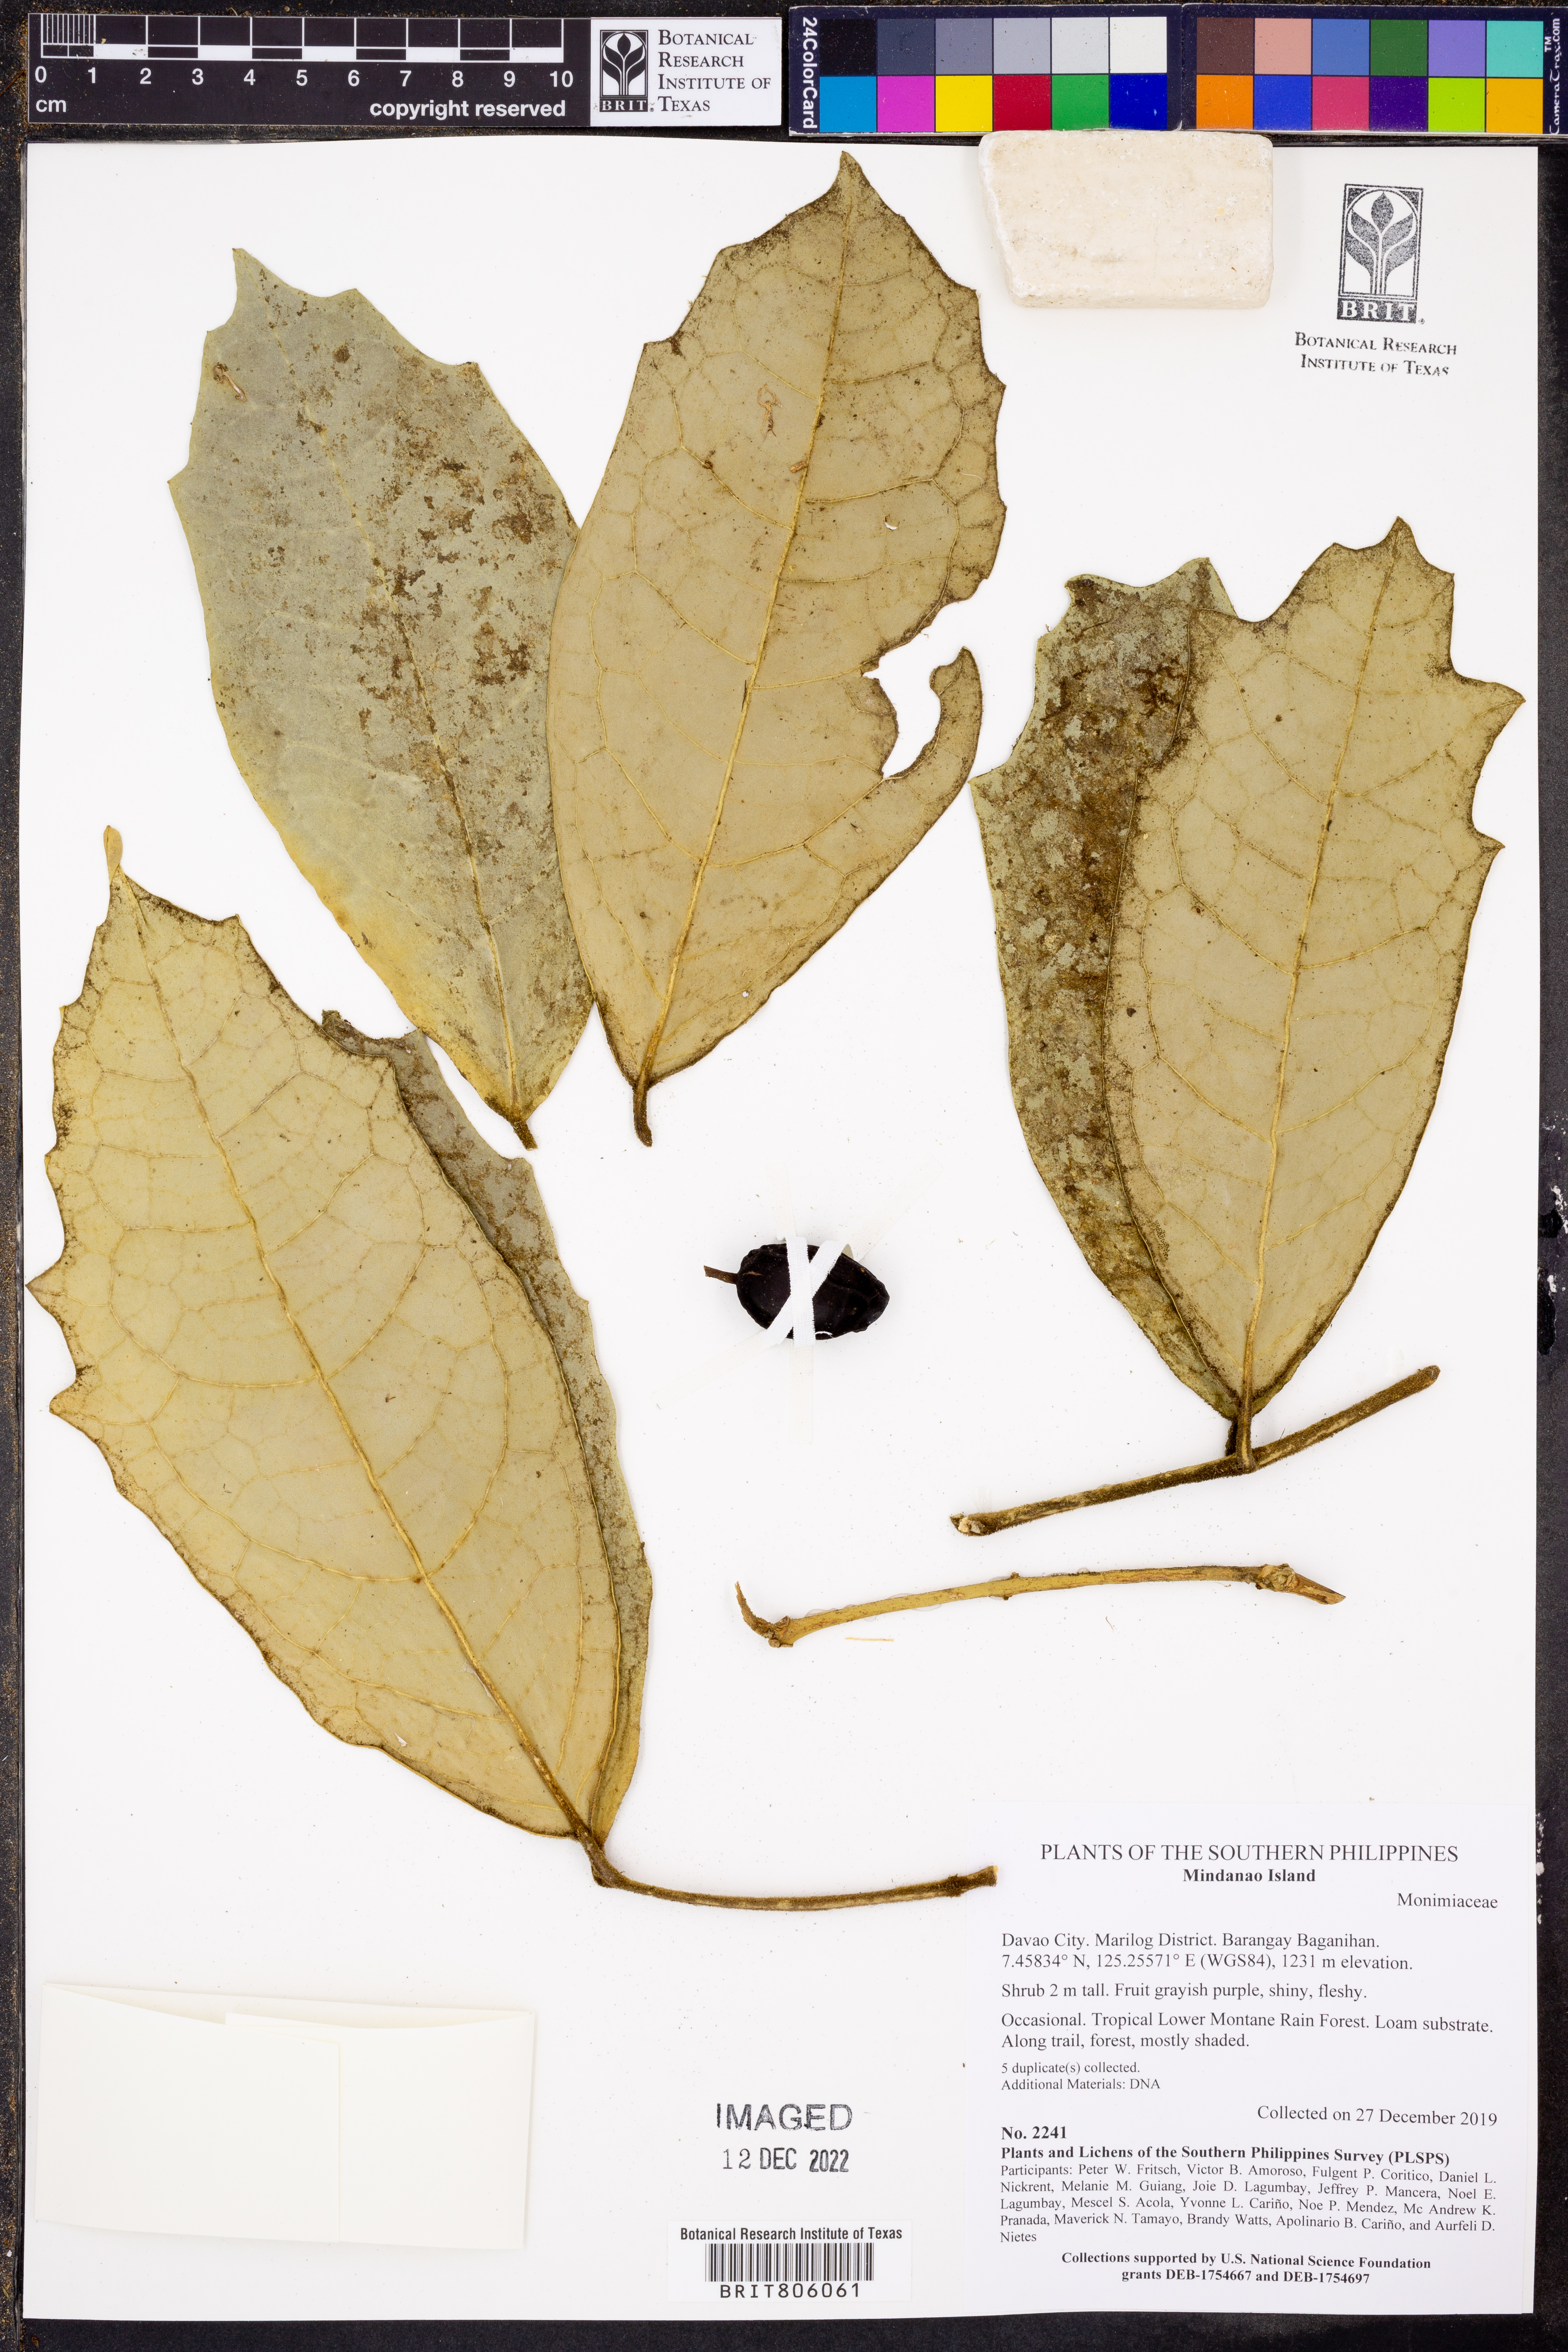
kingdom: Plantae
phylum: Tracheophyta
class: Magnoliopsida
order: Laurales
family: Siparunaceae
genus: Siparuna
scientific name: Siparuna
